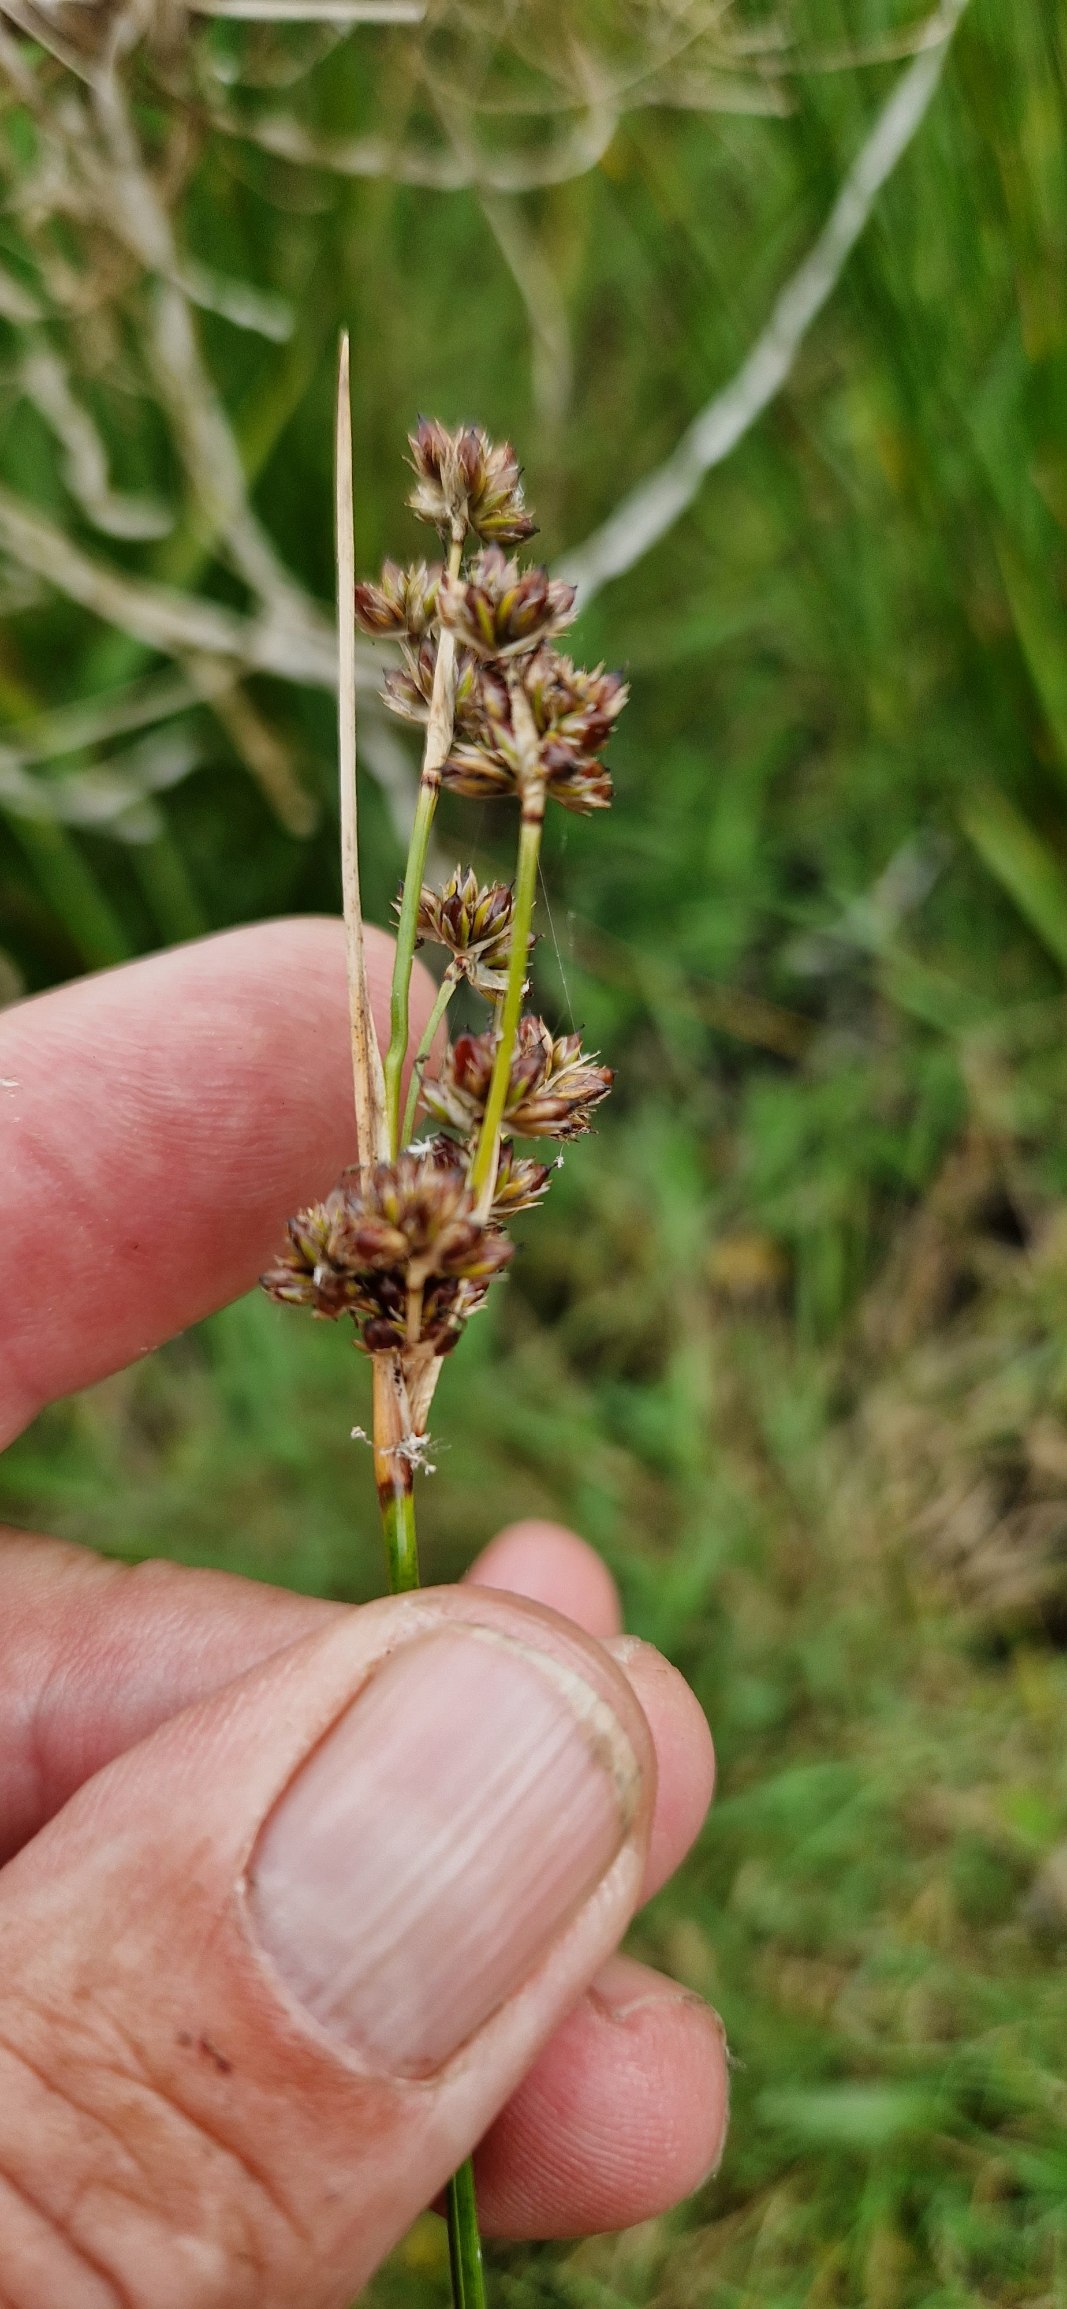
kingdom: Plantae
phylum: Tracheophyta
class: Liliopsida
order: Poales
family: Juncaceae
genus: Juncus
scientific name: Juncus maritimus
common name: Strand-siv
